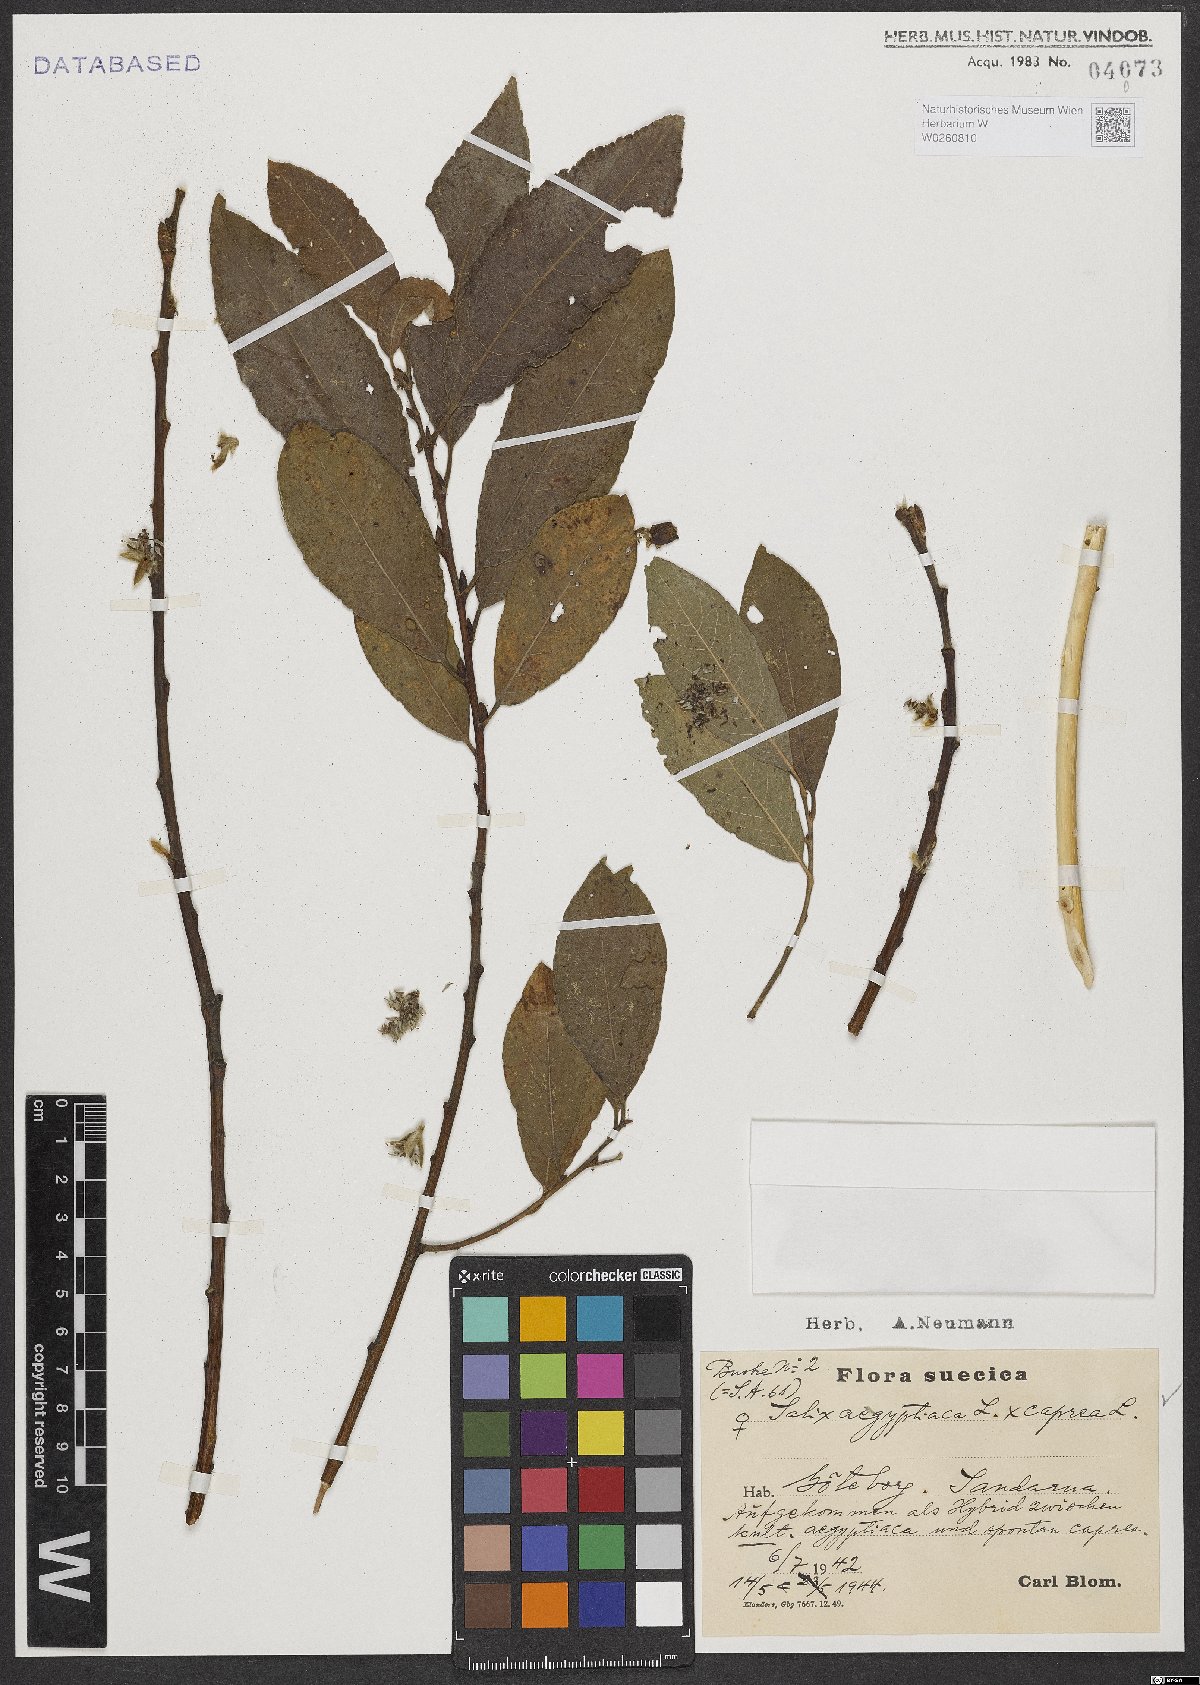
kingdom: Plantae
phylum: Tracheophyta
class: Magnoliopsida
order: Malpighiales
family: Salicaceae
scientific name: Salicaceae
